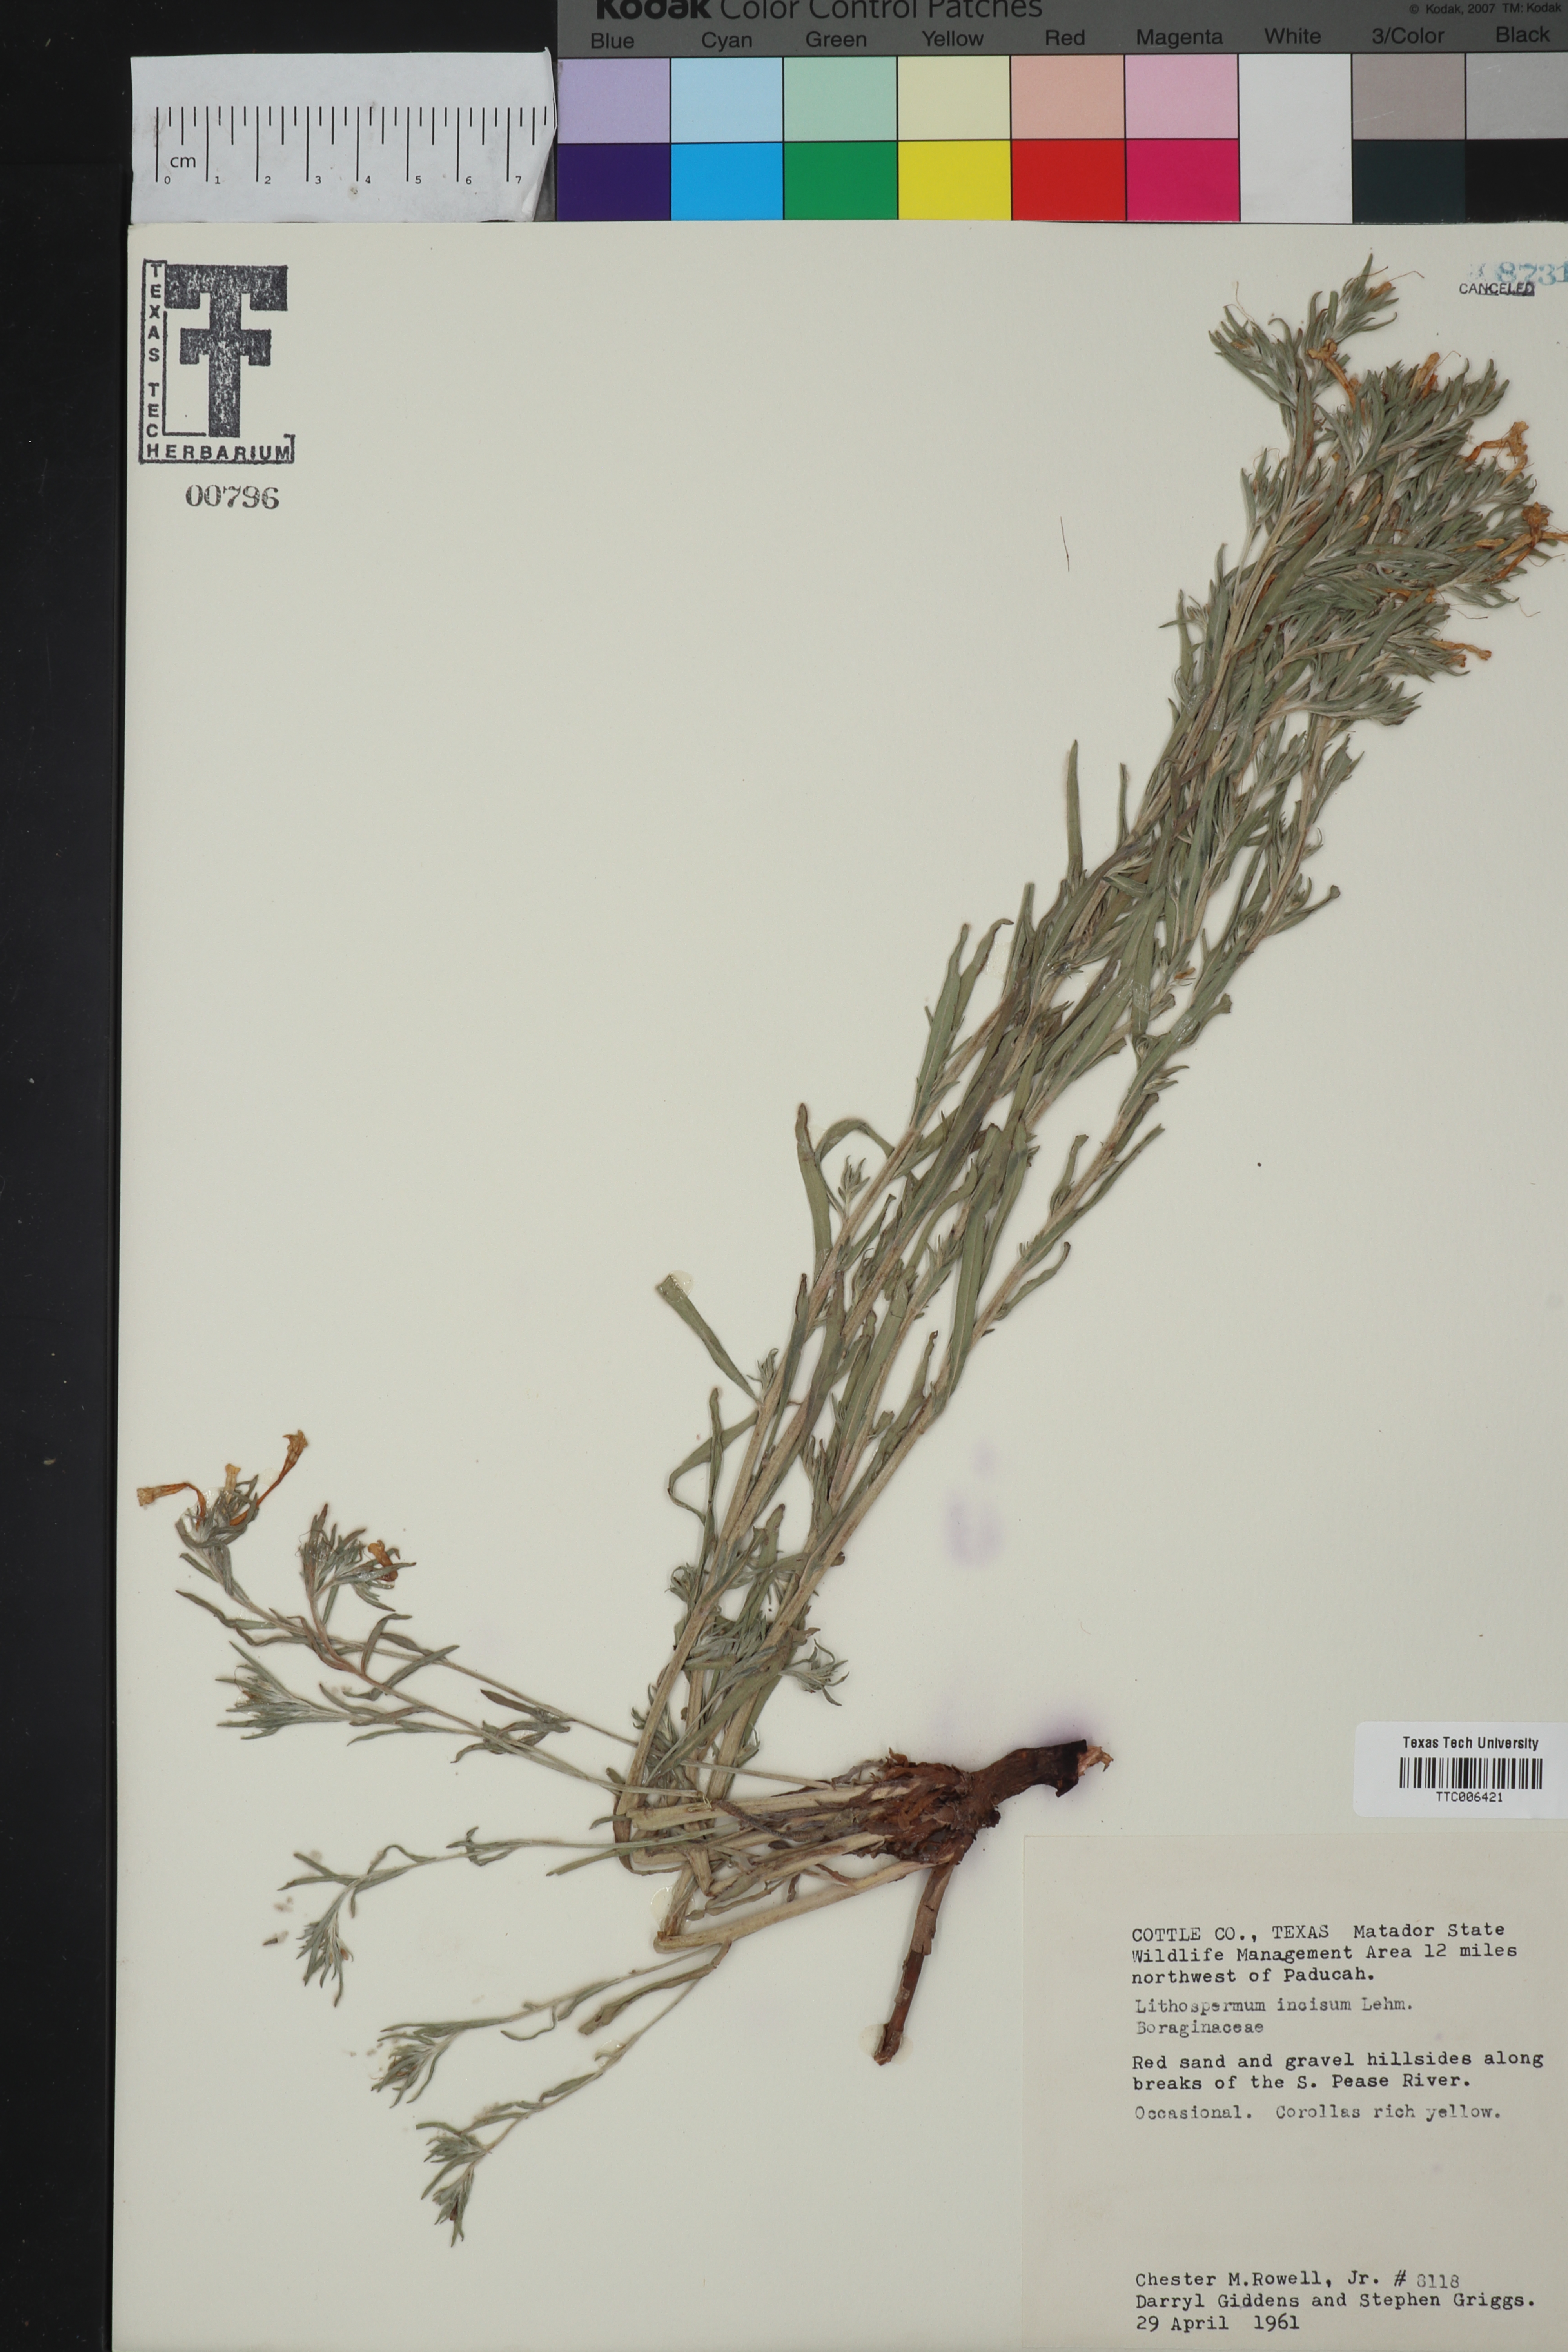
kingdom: Plantae
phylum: Tracheophyta
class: Magnoliopsida
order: Boraginales
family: Boraginaceae
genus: Lithospermum
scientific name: Lithospermum incisum
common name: Fringed gromwell
